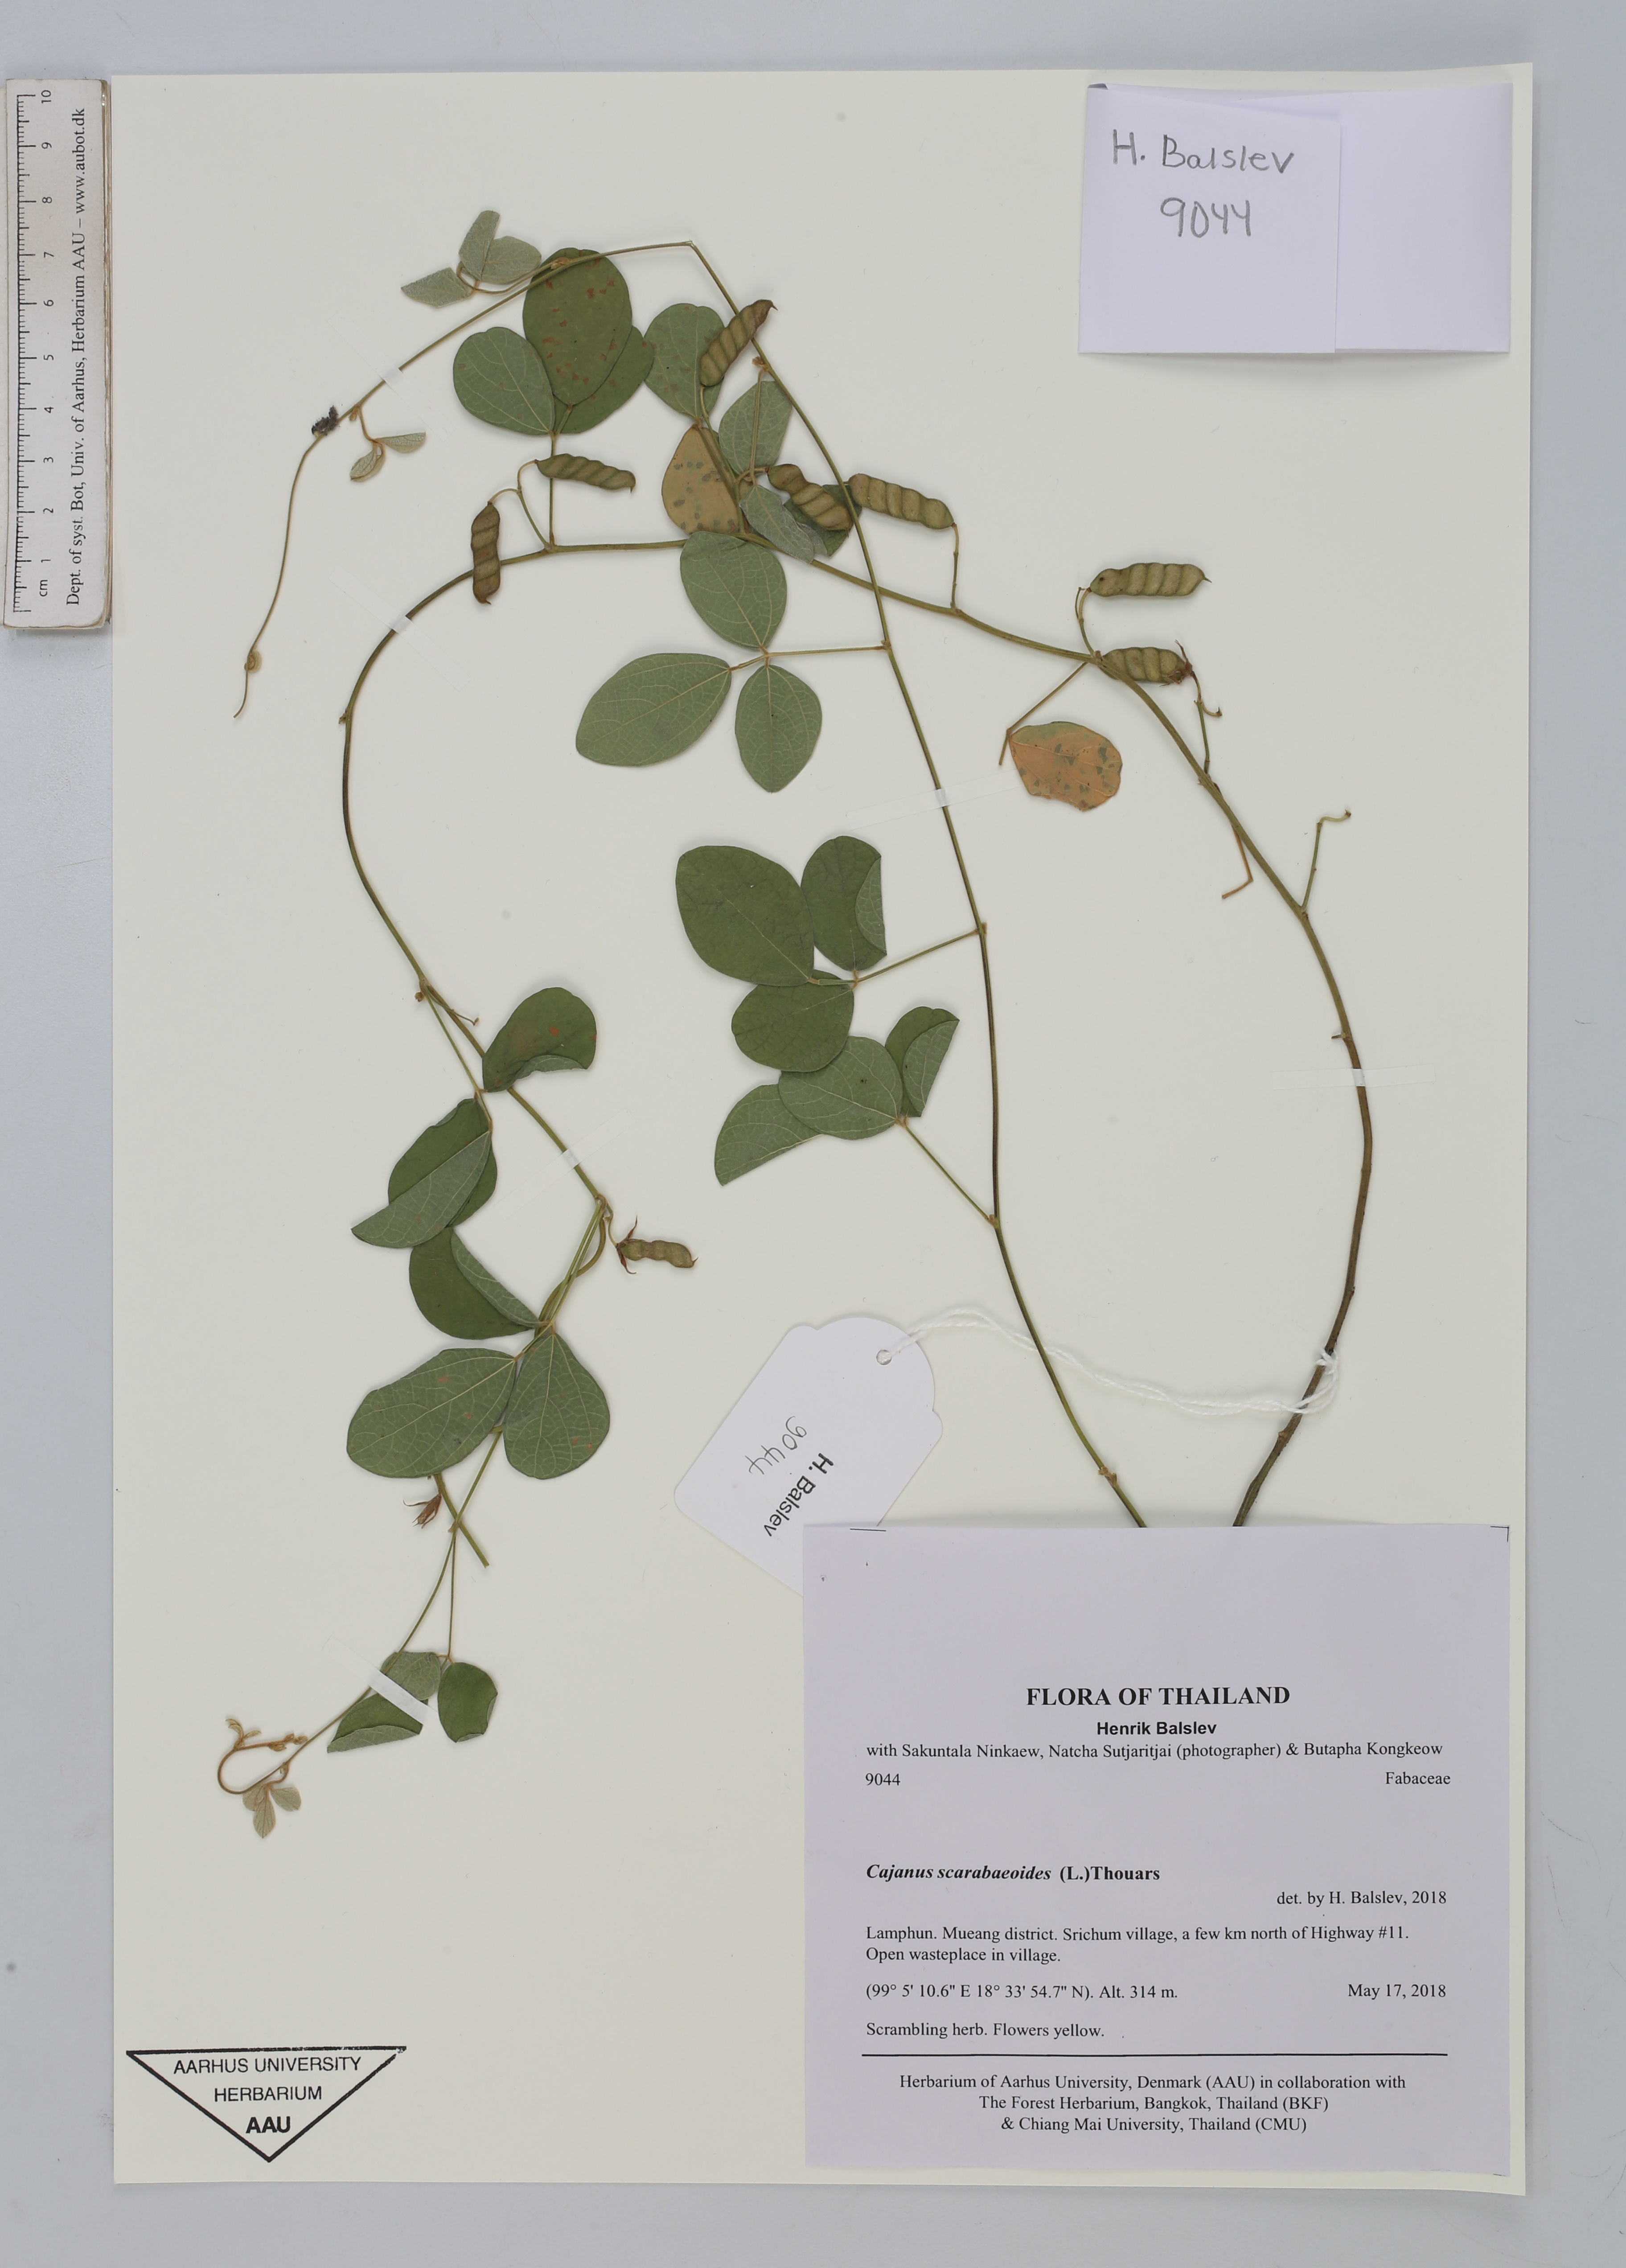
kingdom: Plantae
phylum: Tracheophyta
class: Magnoliopsida
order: Fabales
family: Fabaceae
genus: Cajanus
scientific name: Cajanus scarabaeoides
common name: Showy pigeonpea
